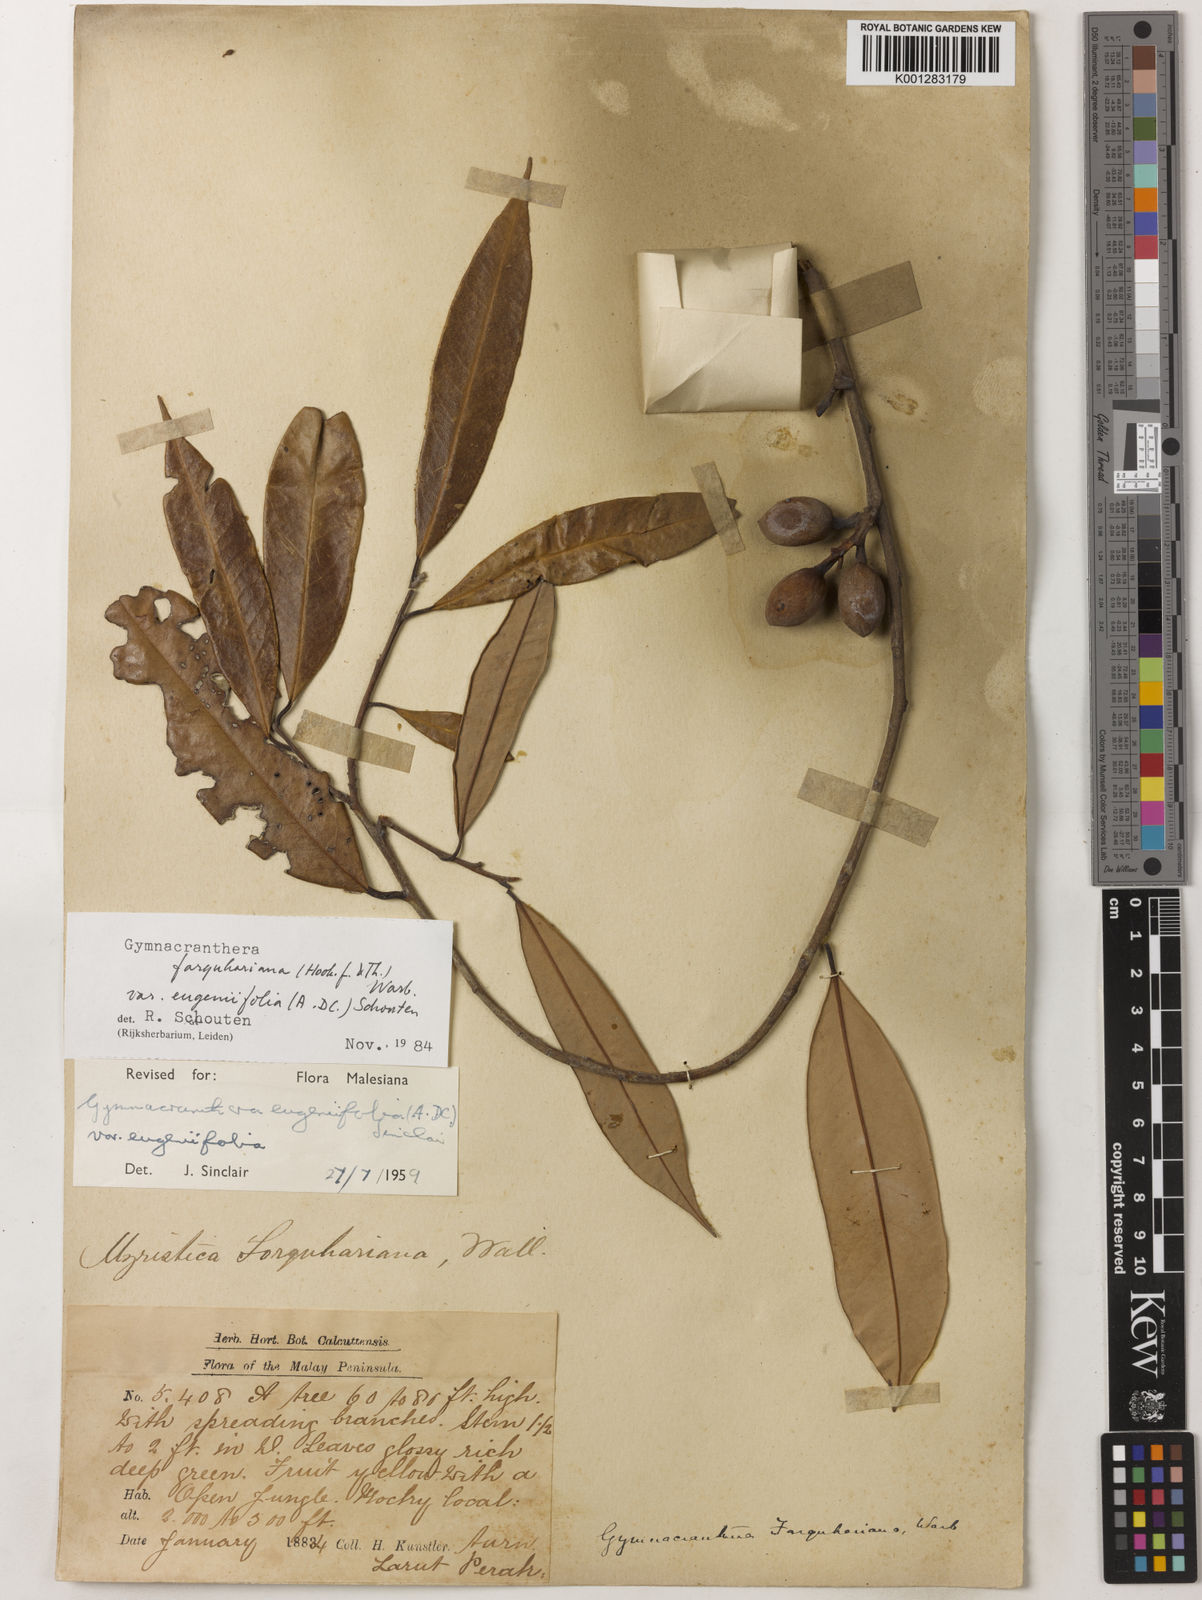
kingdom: Plantae
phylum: Tracheophyta
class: Magnoliopsida
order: Magnoliales
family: Myristicaceae
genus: Gymnacranthera
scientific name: Gymnacranthera farquhariana
